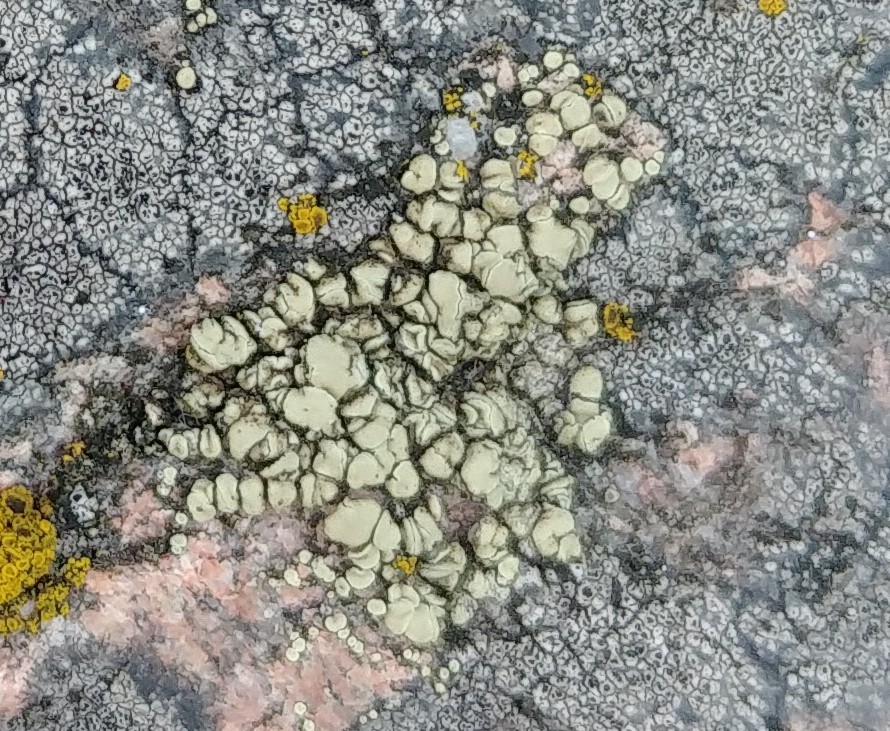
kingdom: Fungi
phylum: Ascomycota
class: Lecanoromycetes
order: Lecanorales
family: Lecanoraceae
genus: Lecanora
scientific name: Lecanora polytropa
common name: bleggrøn kantskivelav
